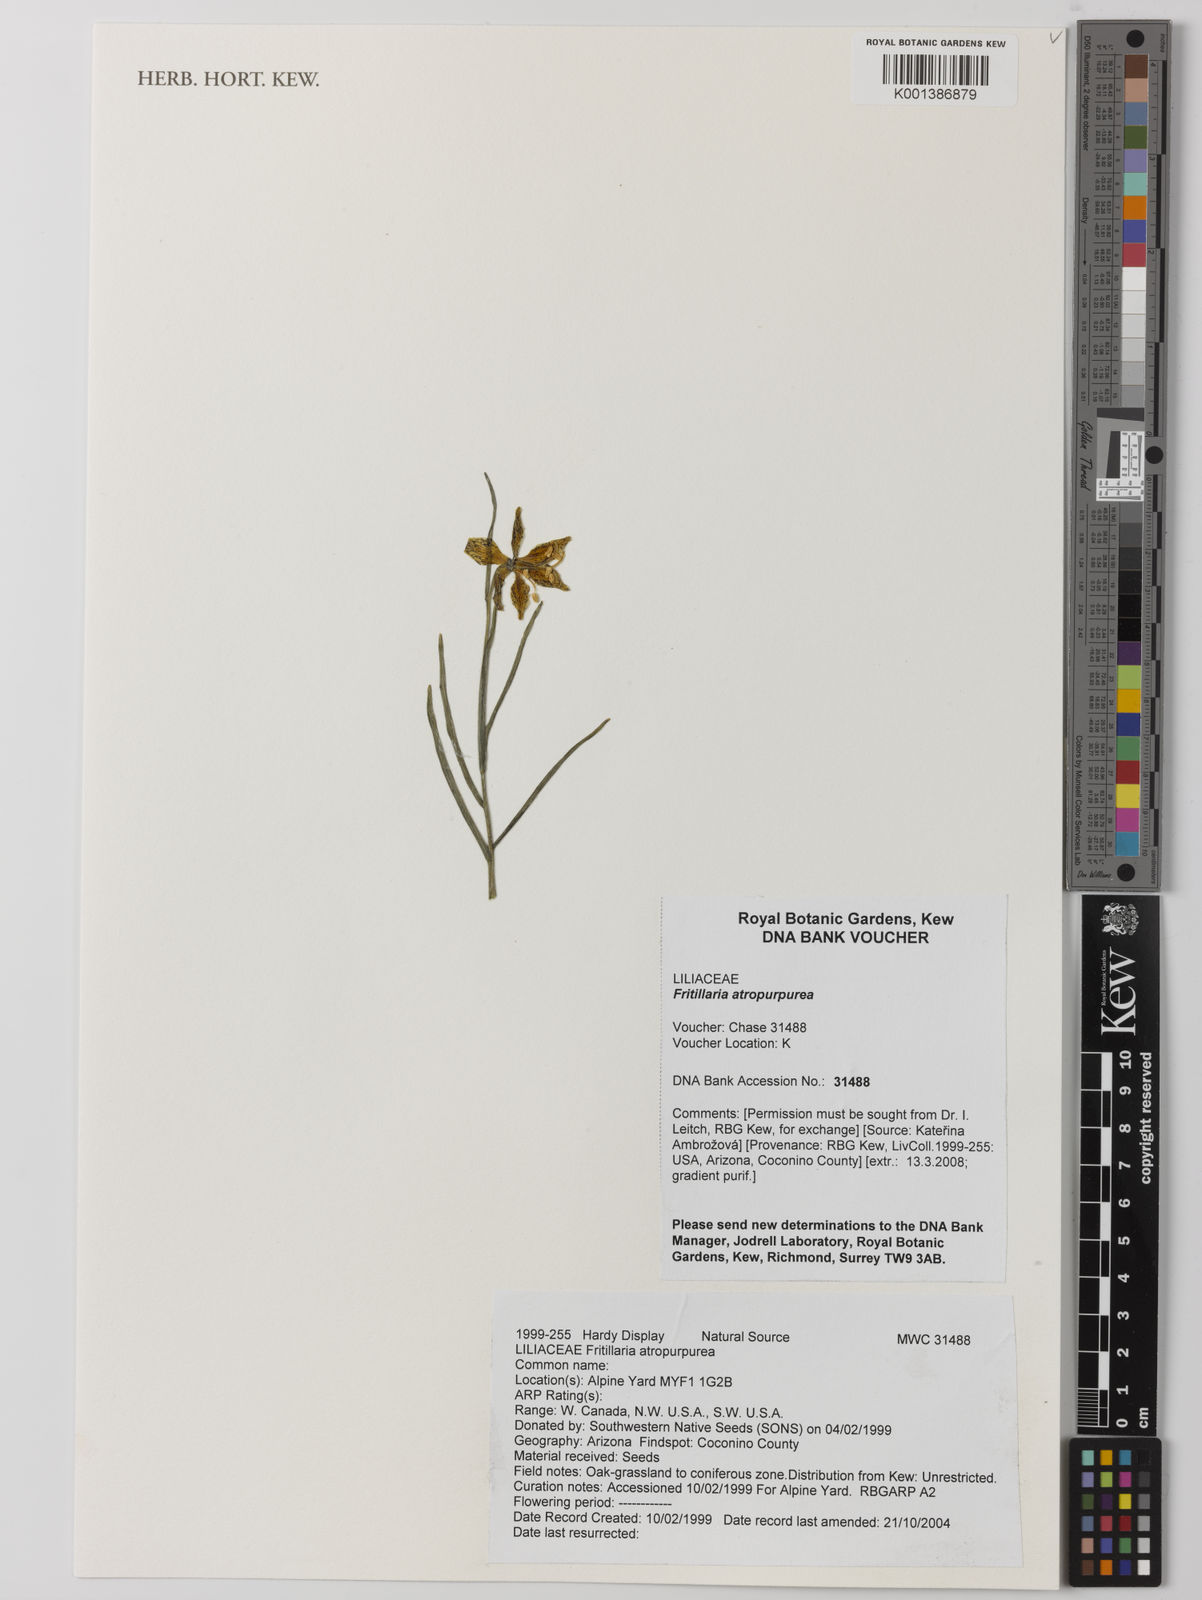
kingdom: Plantae
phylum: Tracheophyta
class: Liliopsida
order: Liliales
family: Liliaceae
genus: Fritillaria
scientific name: Fritillaria atropurpurea
